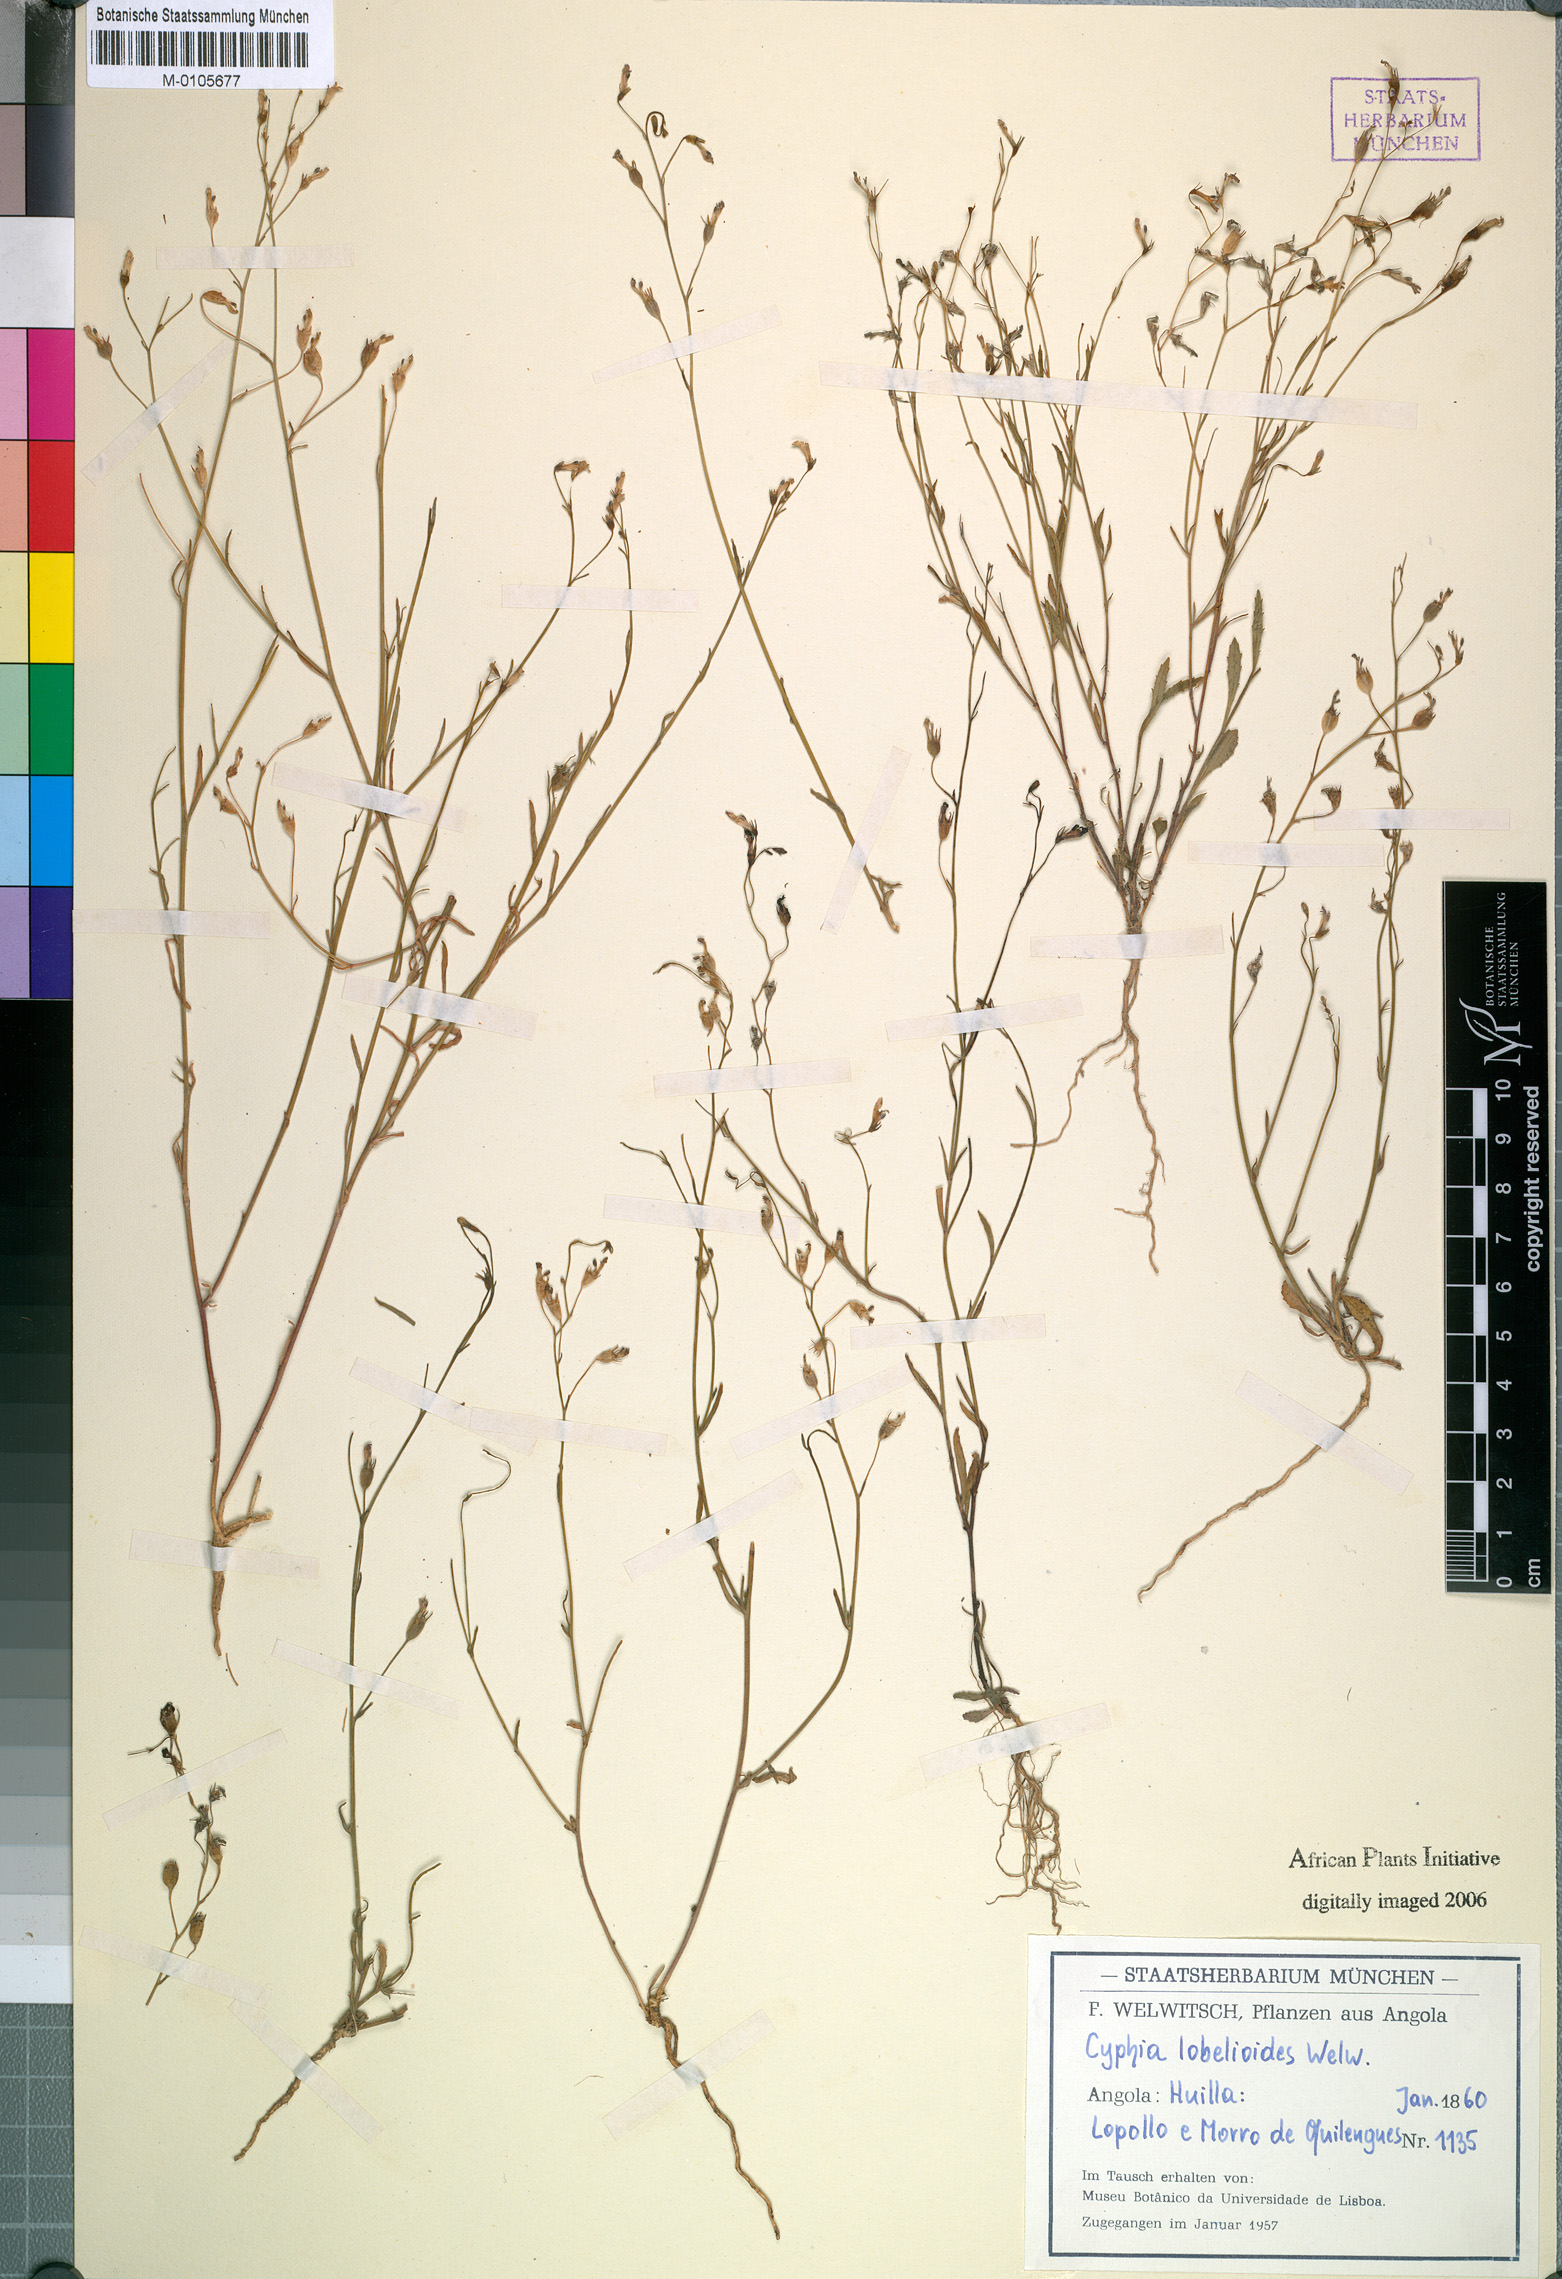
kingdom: Plantae
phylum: Tracheophyta
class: Magnoliopsida
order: Asterales
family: Campanulaceae
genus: Cyphia
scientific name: Cyphia stheno
